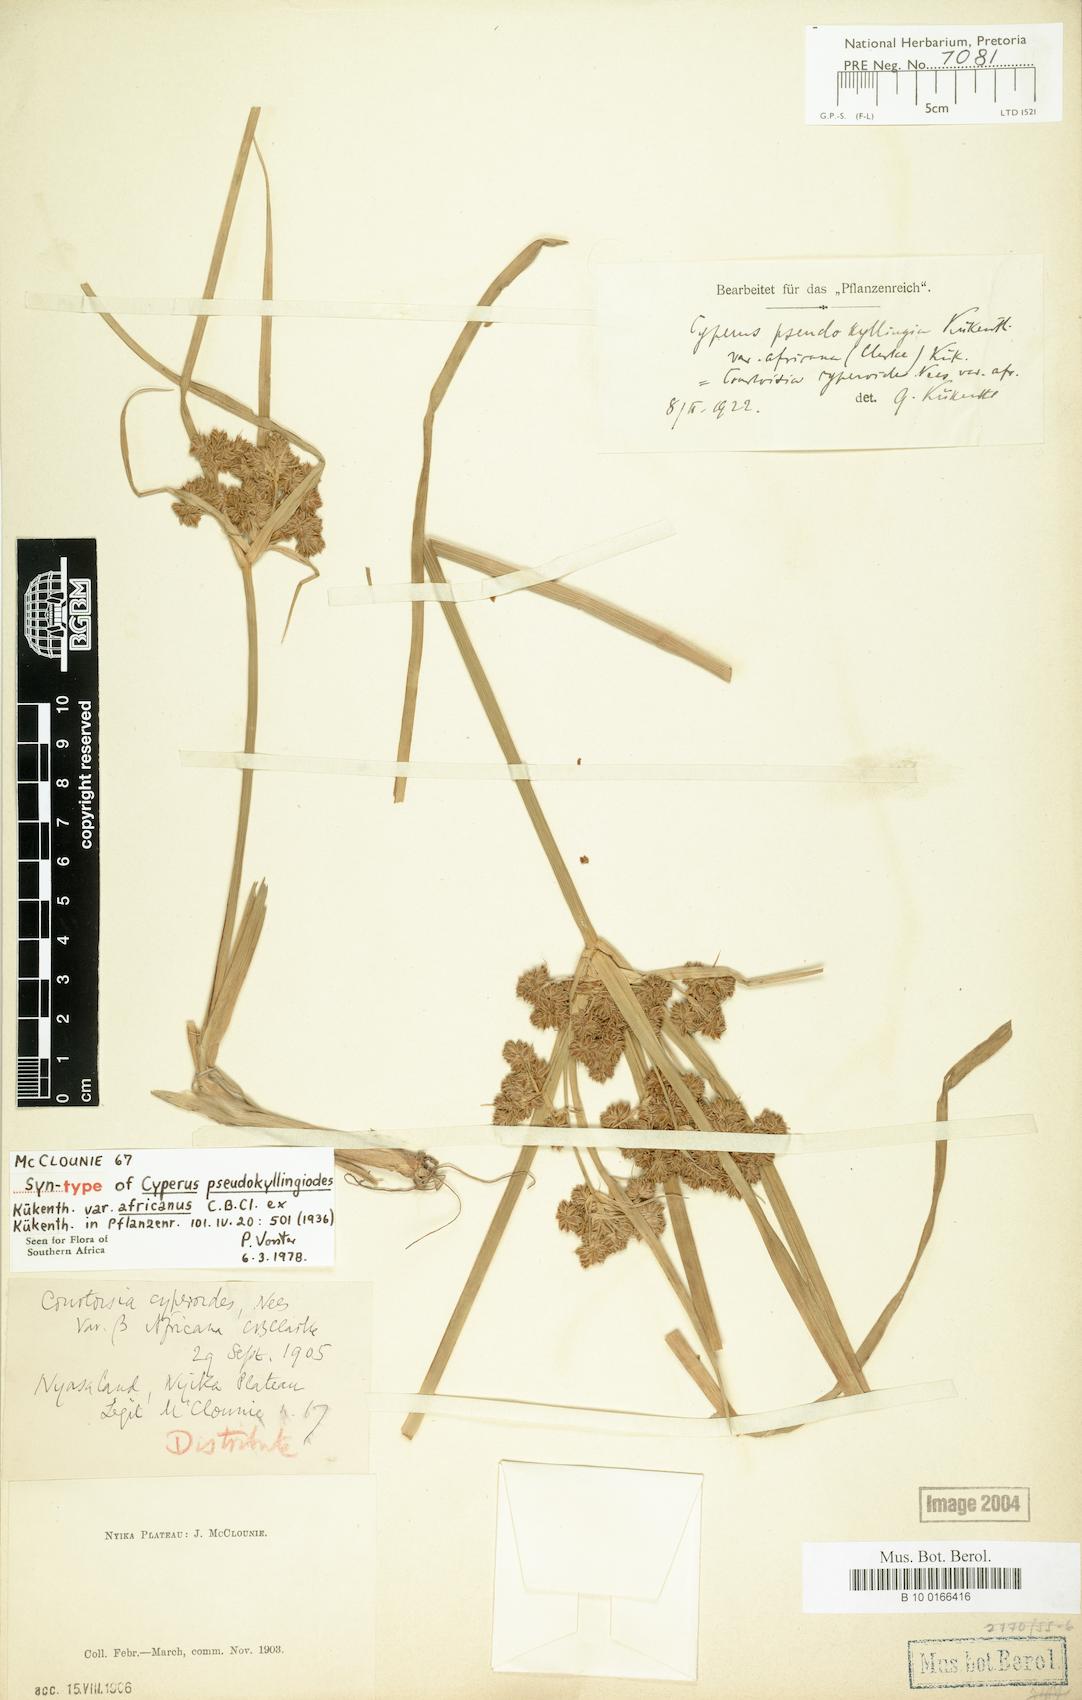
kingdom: Plantae
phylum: Tracheophyta
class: Liliopsida
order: Poales
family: Cyperaceae
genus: Cyperus
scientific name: Cyperus pseudokyllingioides
